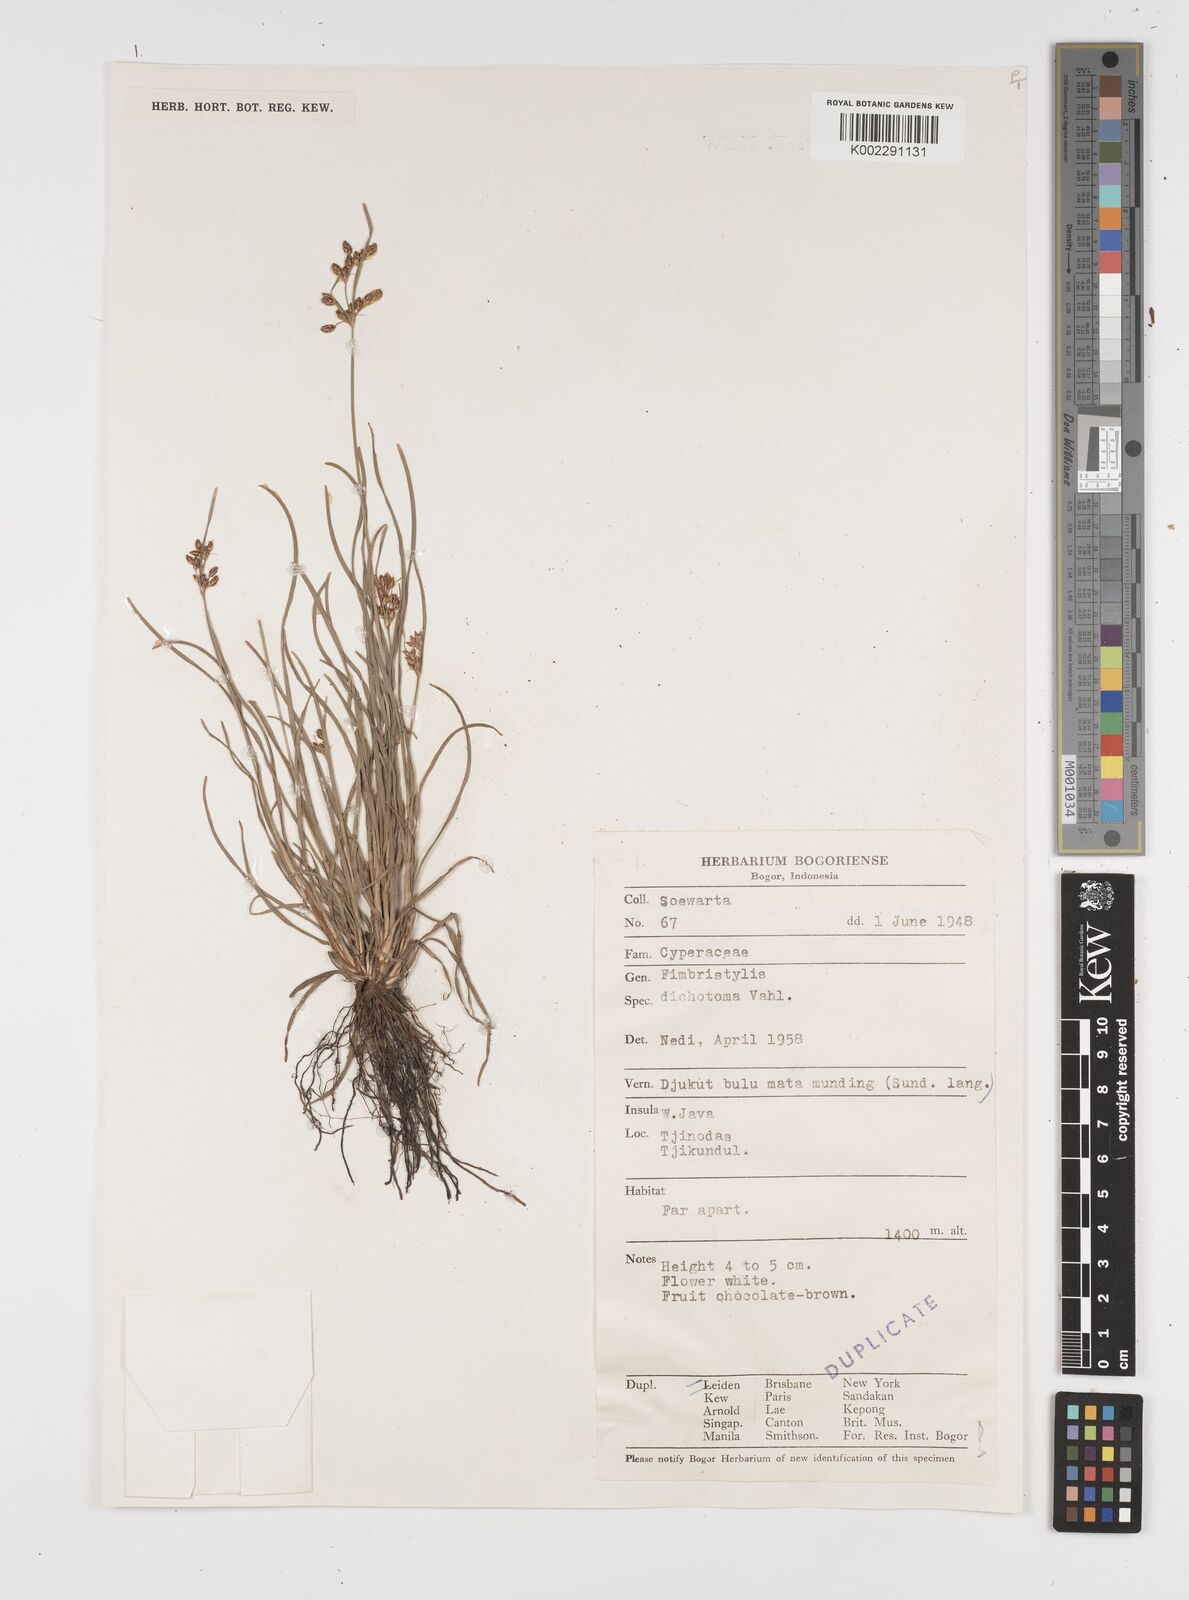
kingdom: Plantae
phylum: Tracheophyta
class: Liliopsida
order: Poales
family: Cyperaceae
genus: Fimbristylis
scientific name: Fimbristylis dichotoma
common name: Forked fimbry
